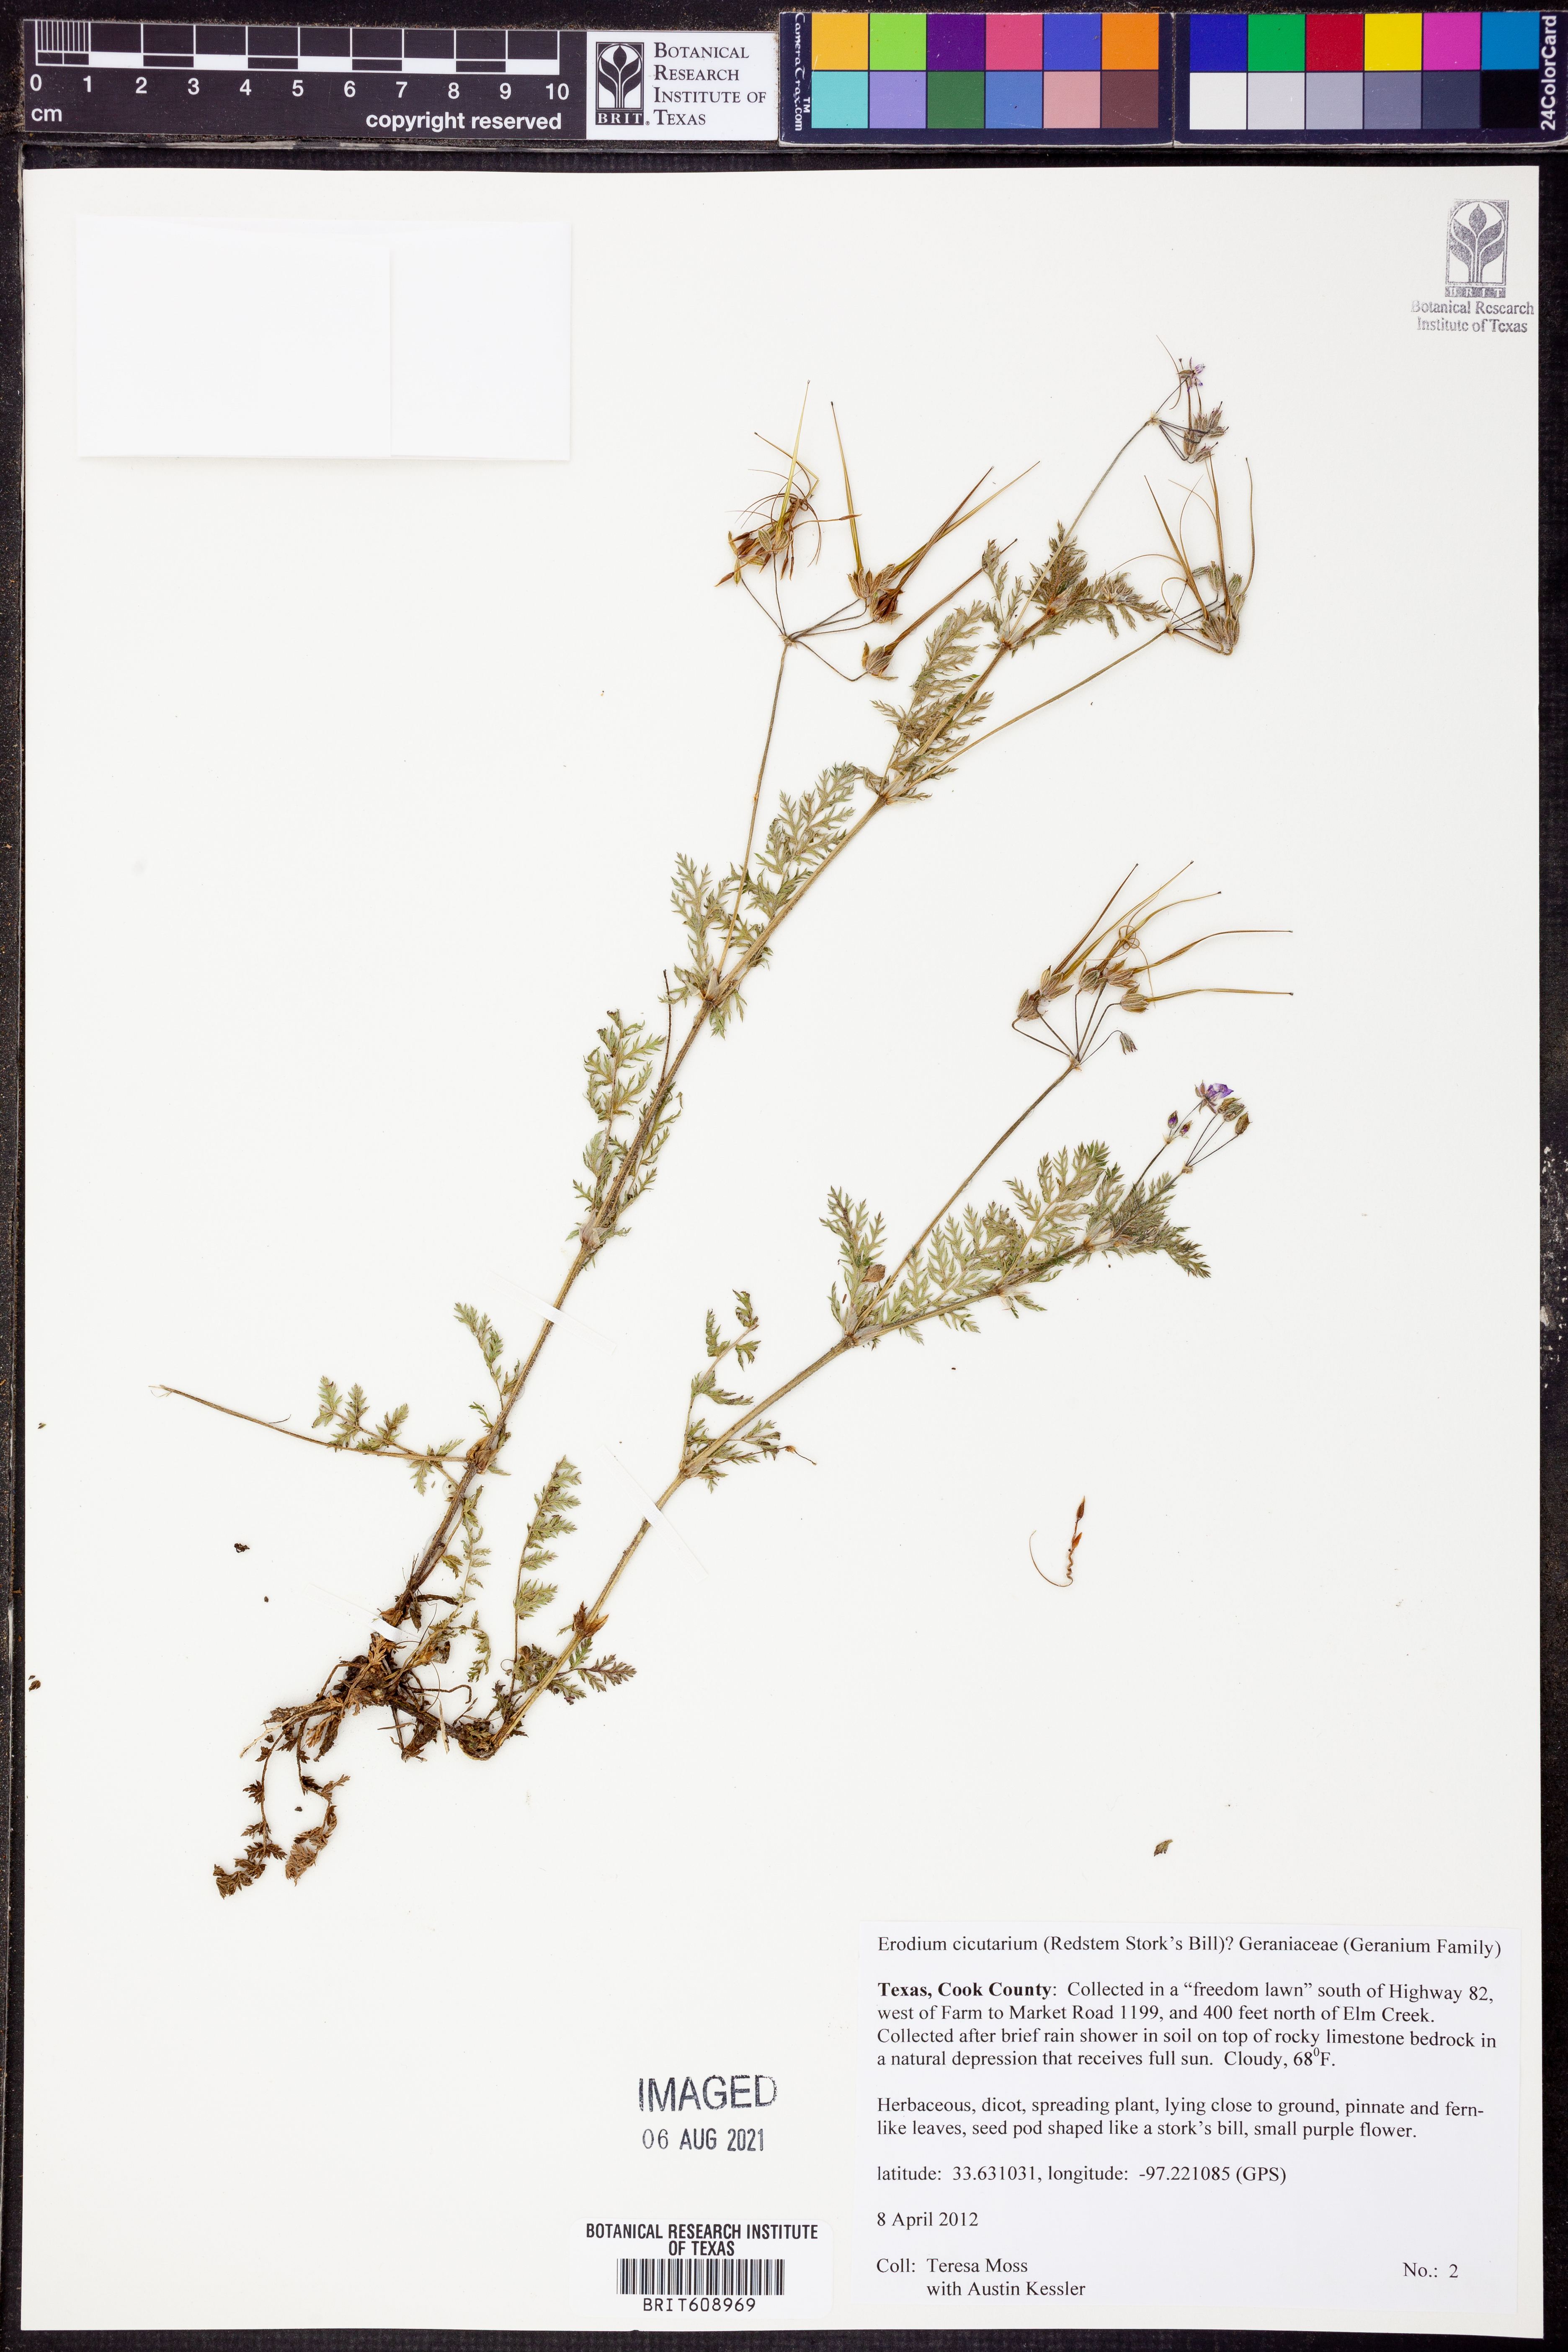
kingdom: Plantae
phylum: Tracheophyta
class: Magnoliopsida
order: Geraniales
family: Geraniaceae
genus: Erodium
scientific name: Erodium cicutarium
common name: Common stork's-bill
